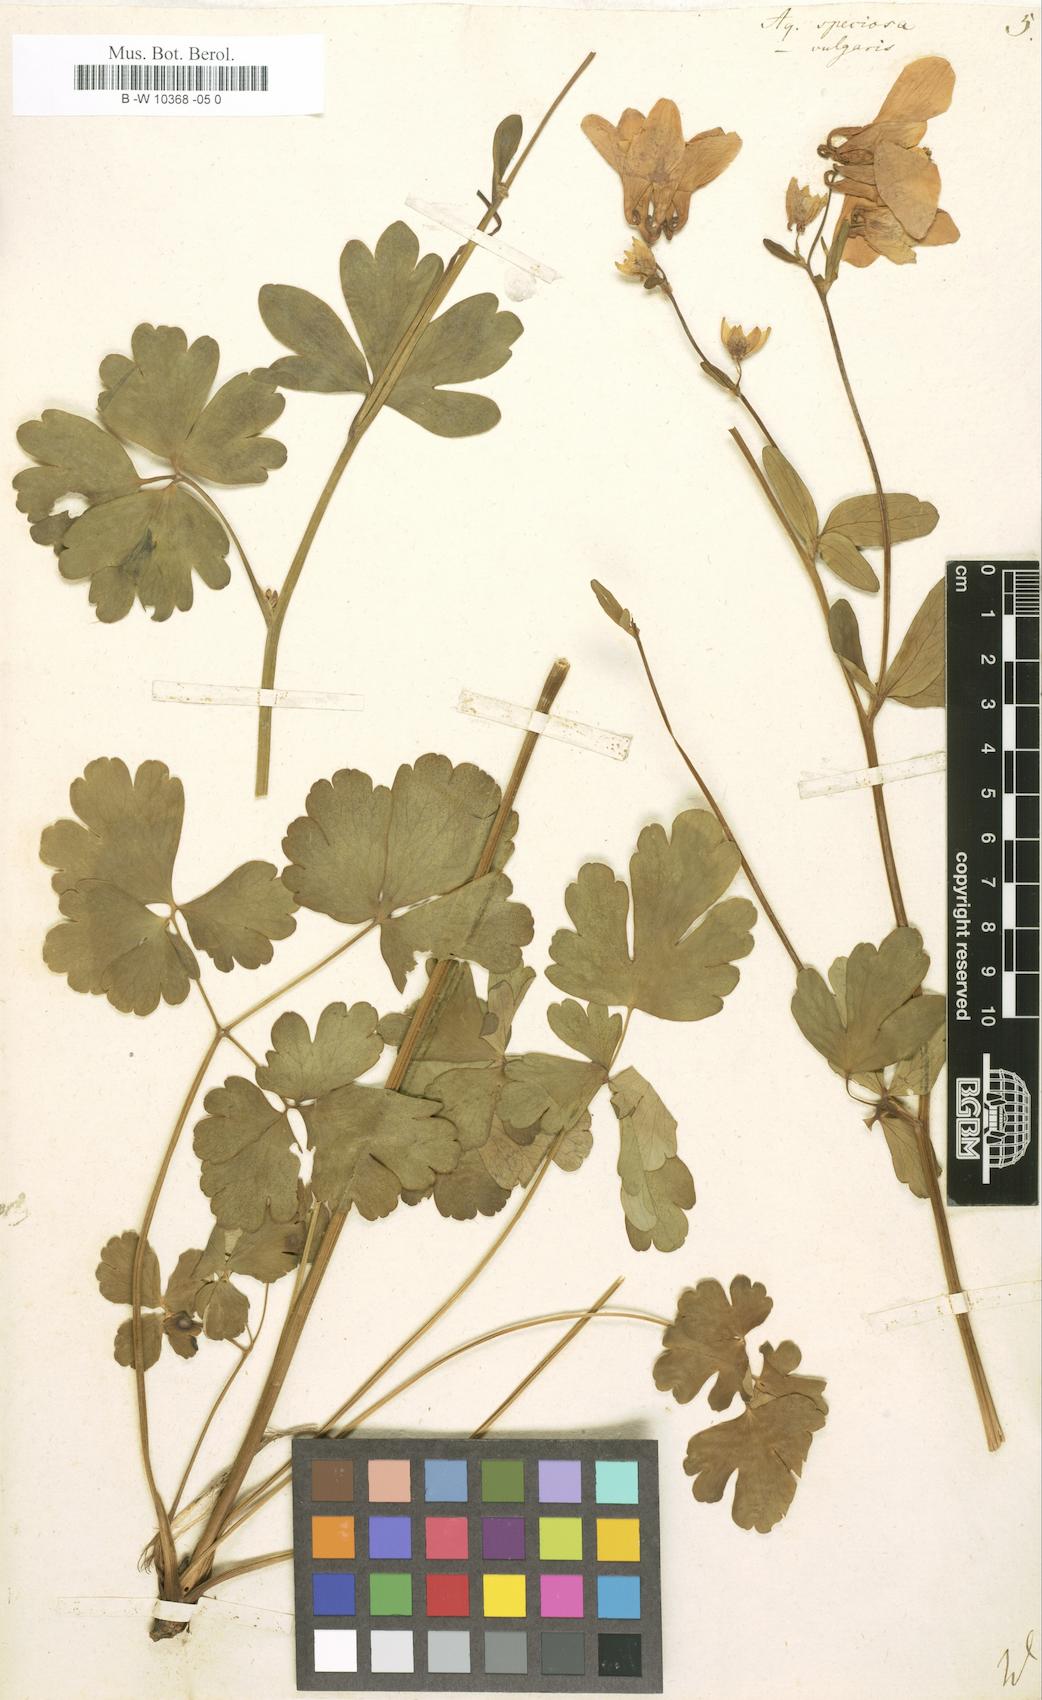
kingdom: Plantae
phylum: Tracheophyta
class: Magnoliopsida
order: Ranunculales
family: Ranunculaceae
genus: Aquilegia
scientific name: Aquilegia
